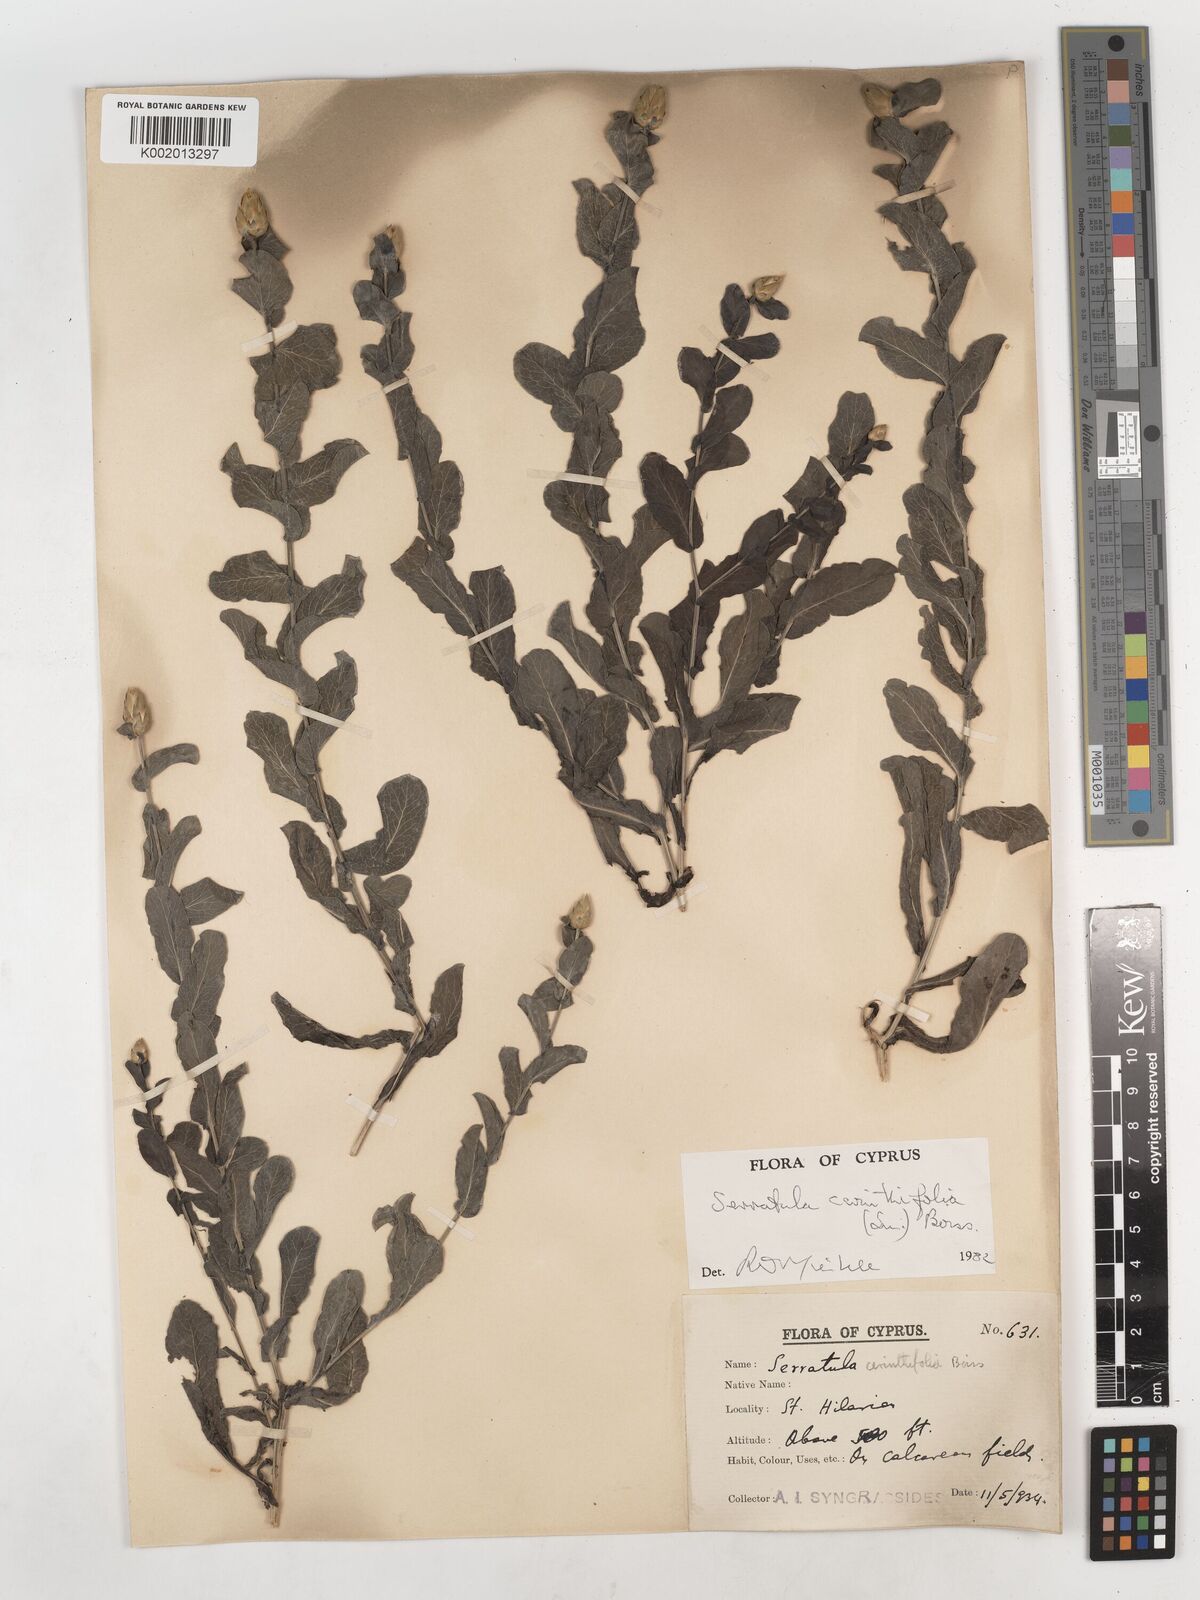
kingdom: Plantae
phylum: Tracheophyta
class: Magnoliopsida
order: Asterales
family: Asteraceae
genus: Klasea
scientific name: Klasea cerinthifolia
